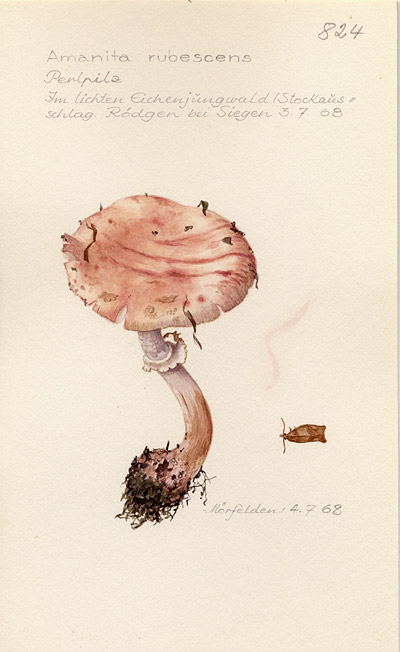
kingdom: Fungi
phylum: Basidiomycota
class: Agaricomycetes
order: Agaricales
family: Amanitaceae
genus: Amanita
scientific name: Amanita rubescens
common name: Blusher
